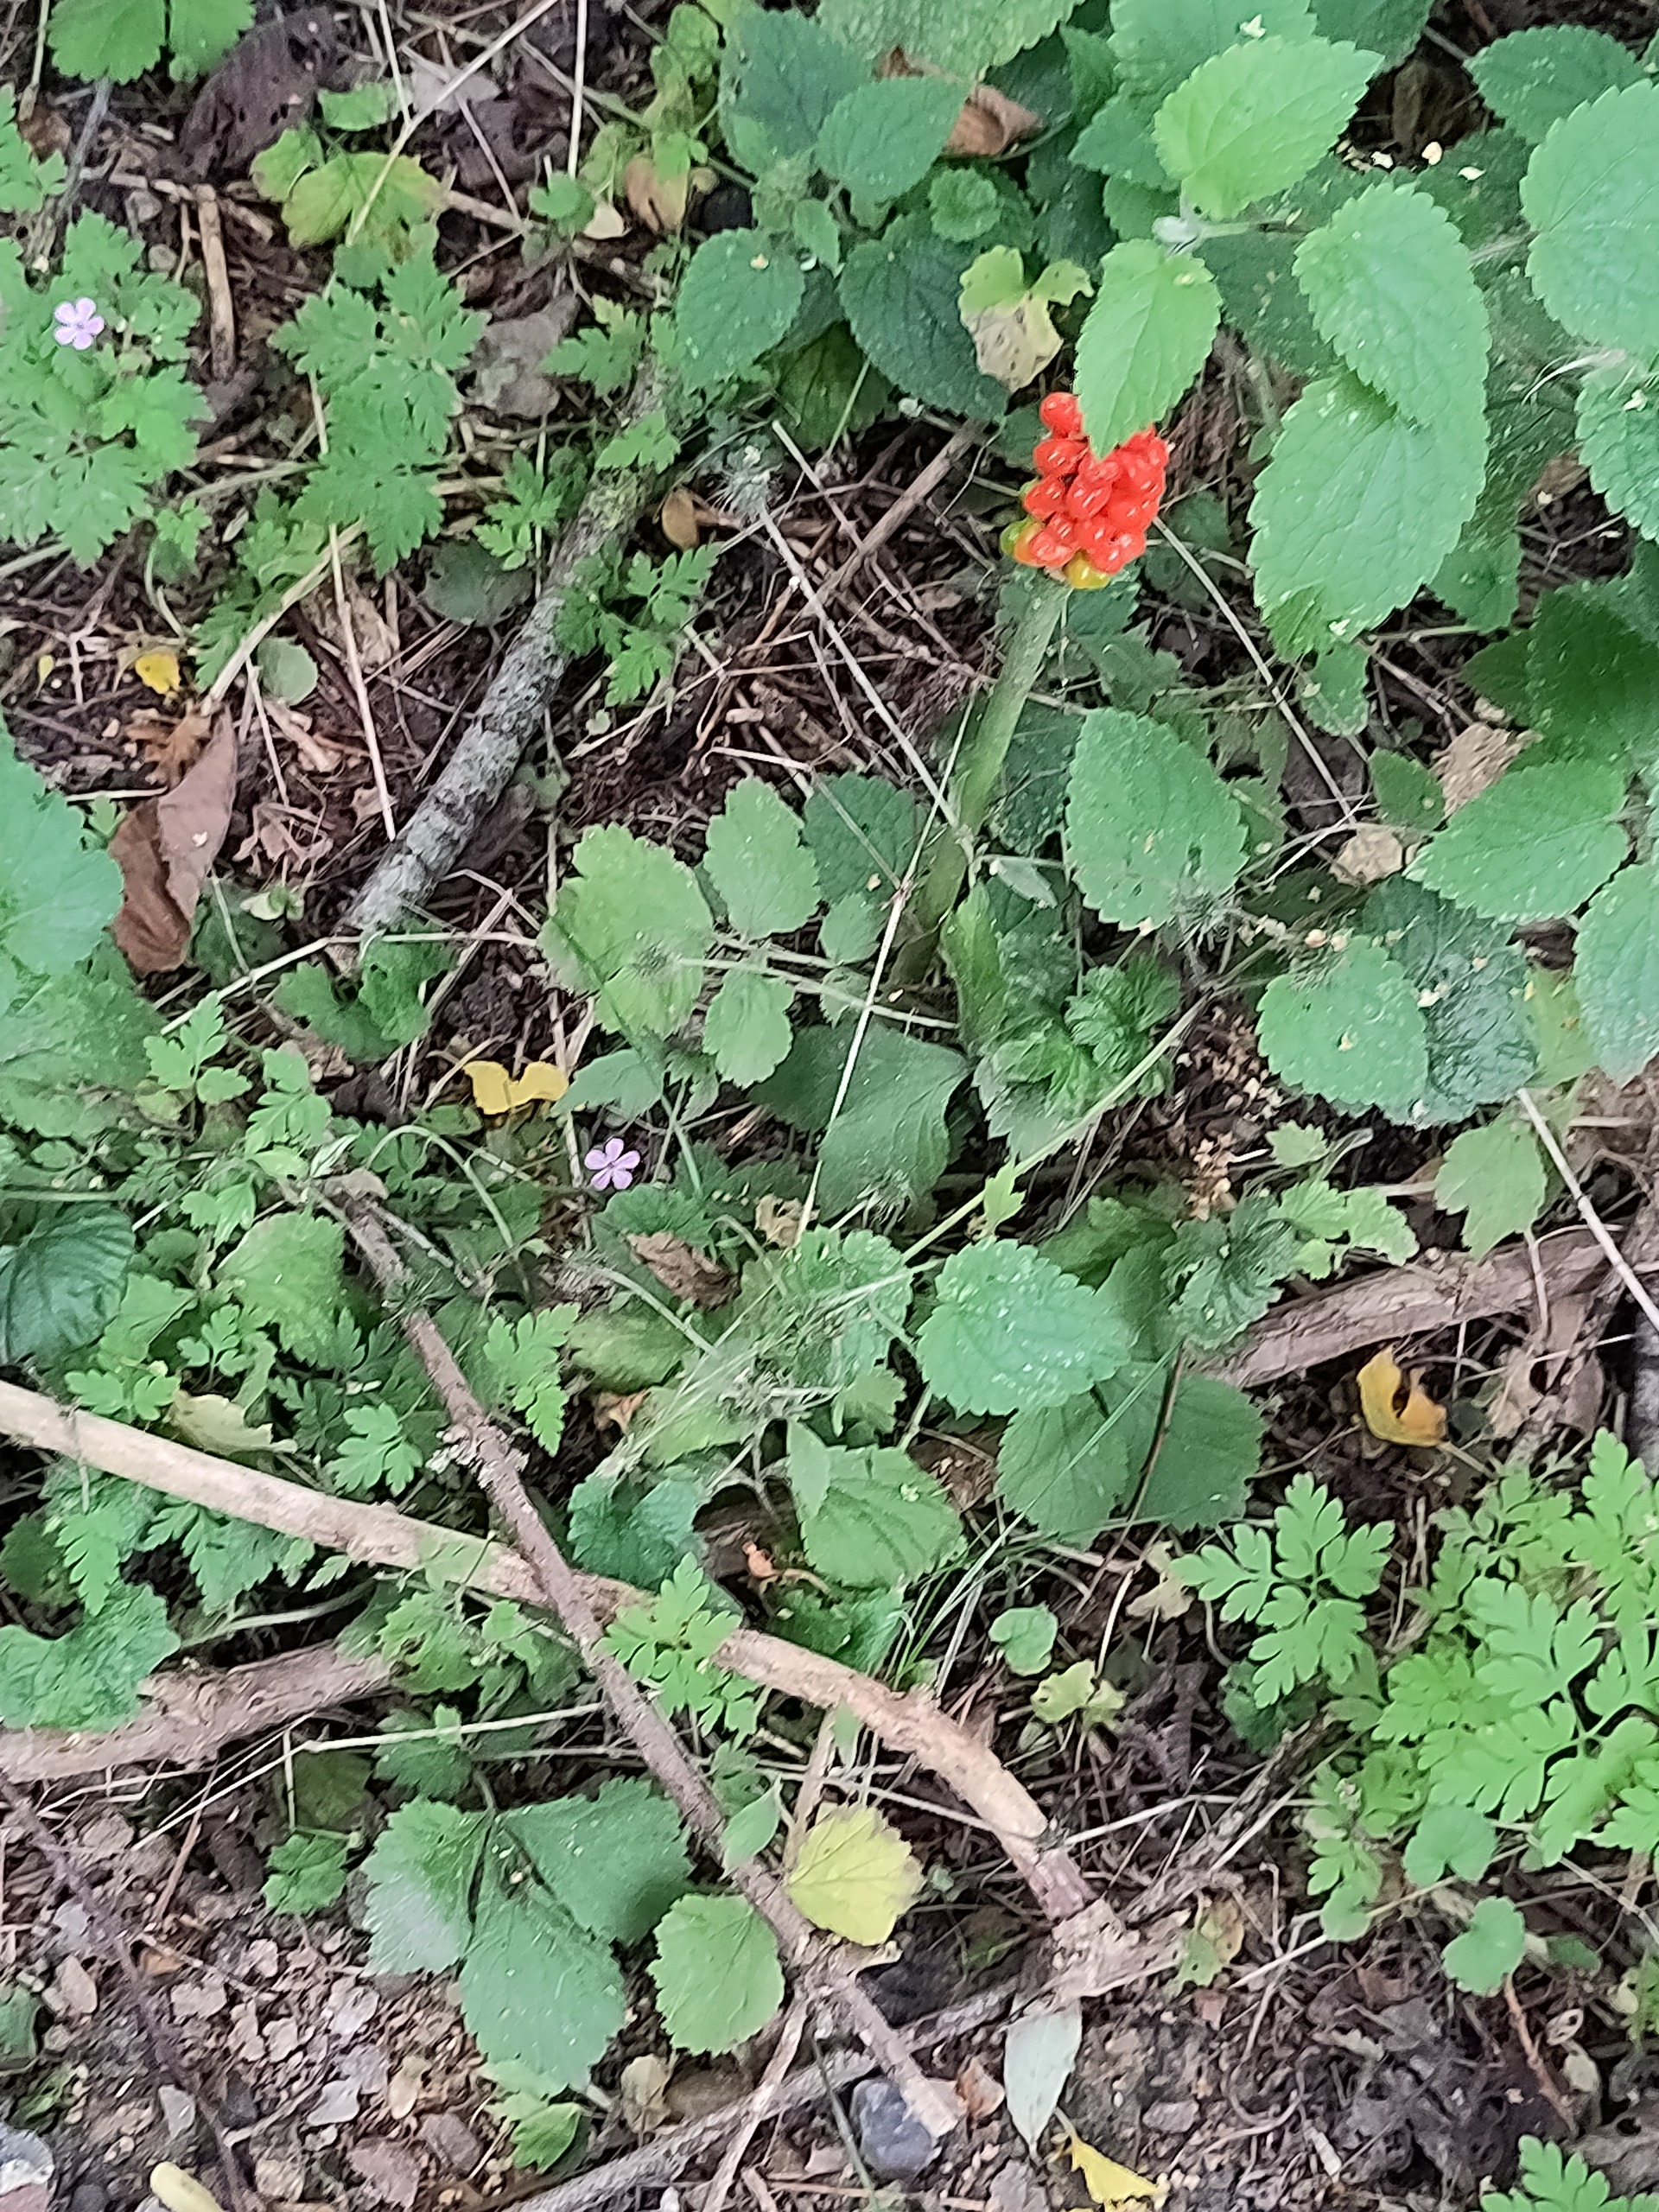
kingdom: Plantae
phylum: Tracheophyta
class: Liliopsida
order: Alismatales
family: Araceae
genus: Arum
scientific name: Arum
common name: Arumslægten
